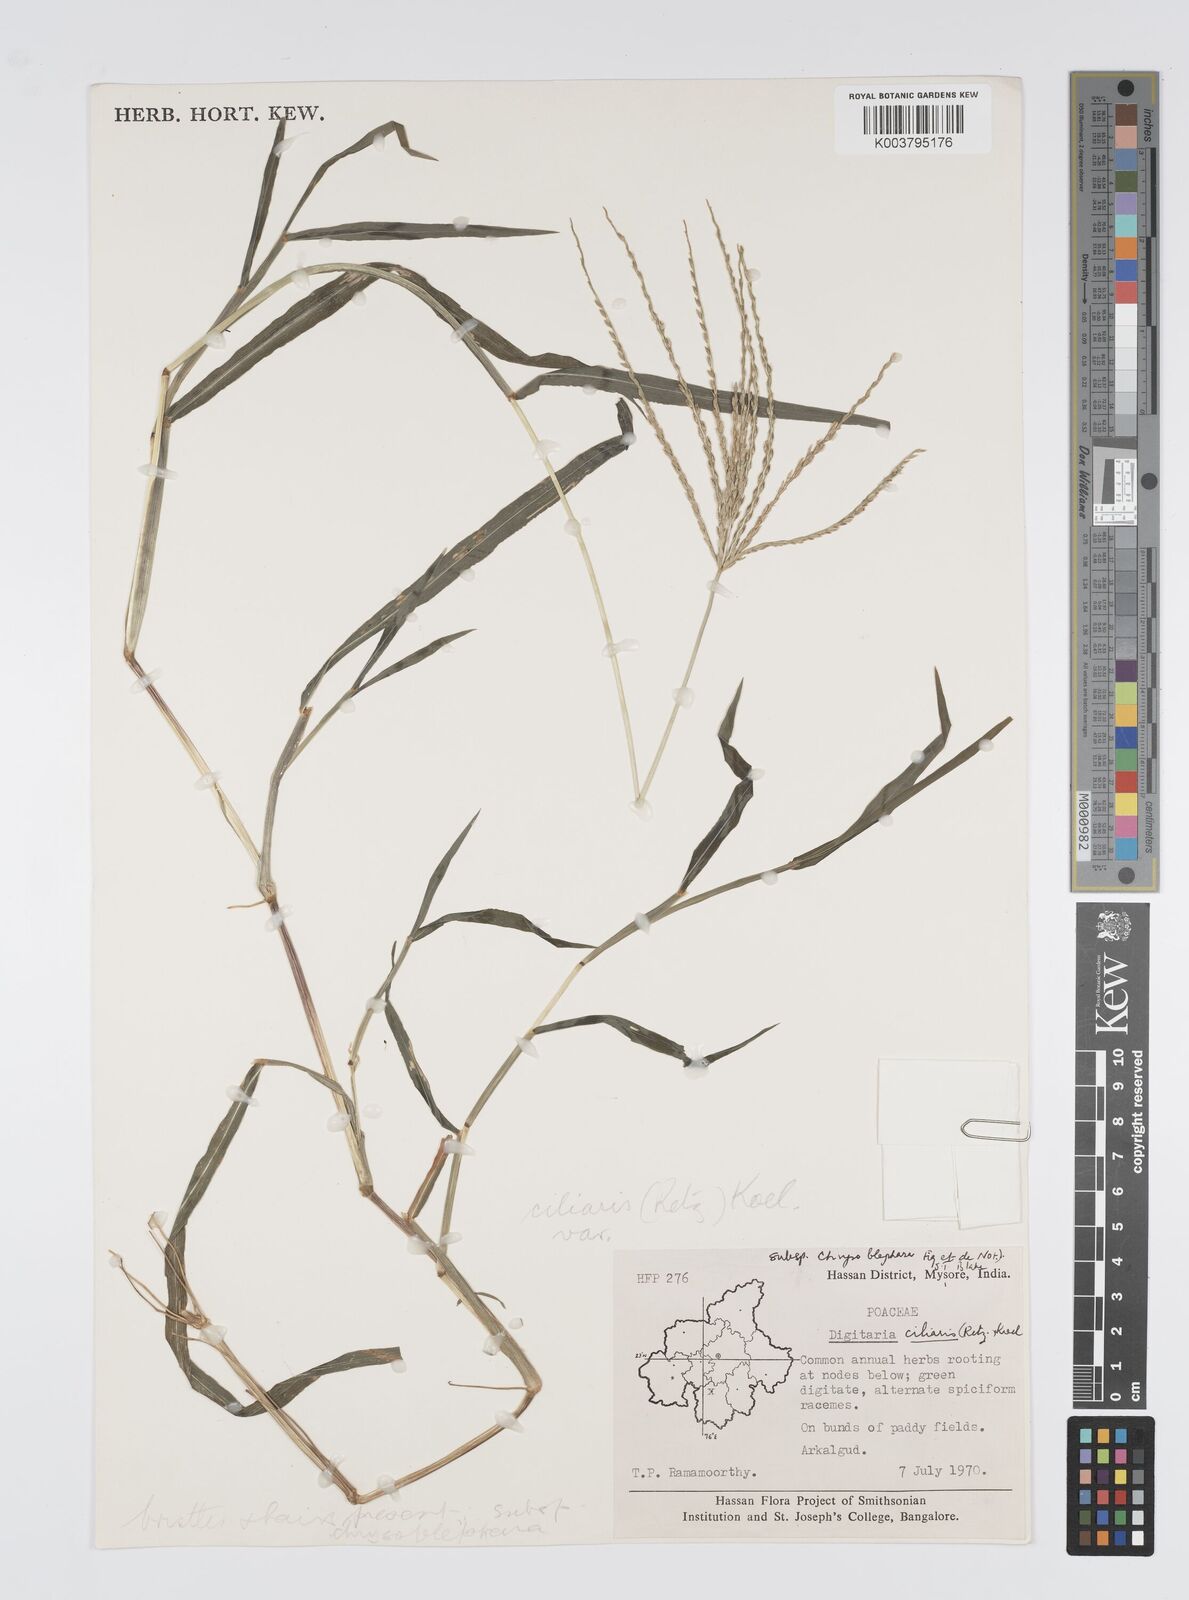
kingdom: Plantae
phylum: Tracheophyta
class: Liliopsida
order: Poales
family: Poaceae
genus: Digitaria
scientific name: Digitaria ciliaris
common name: Tropical finger-grass
